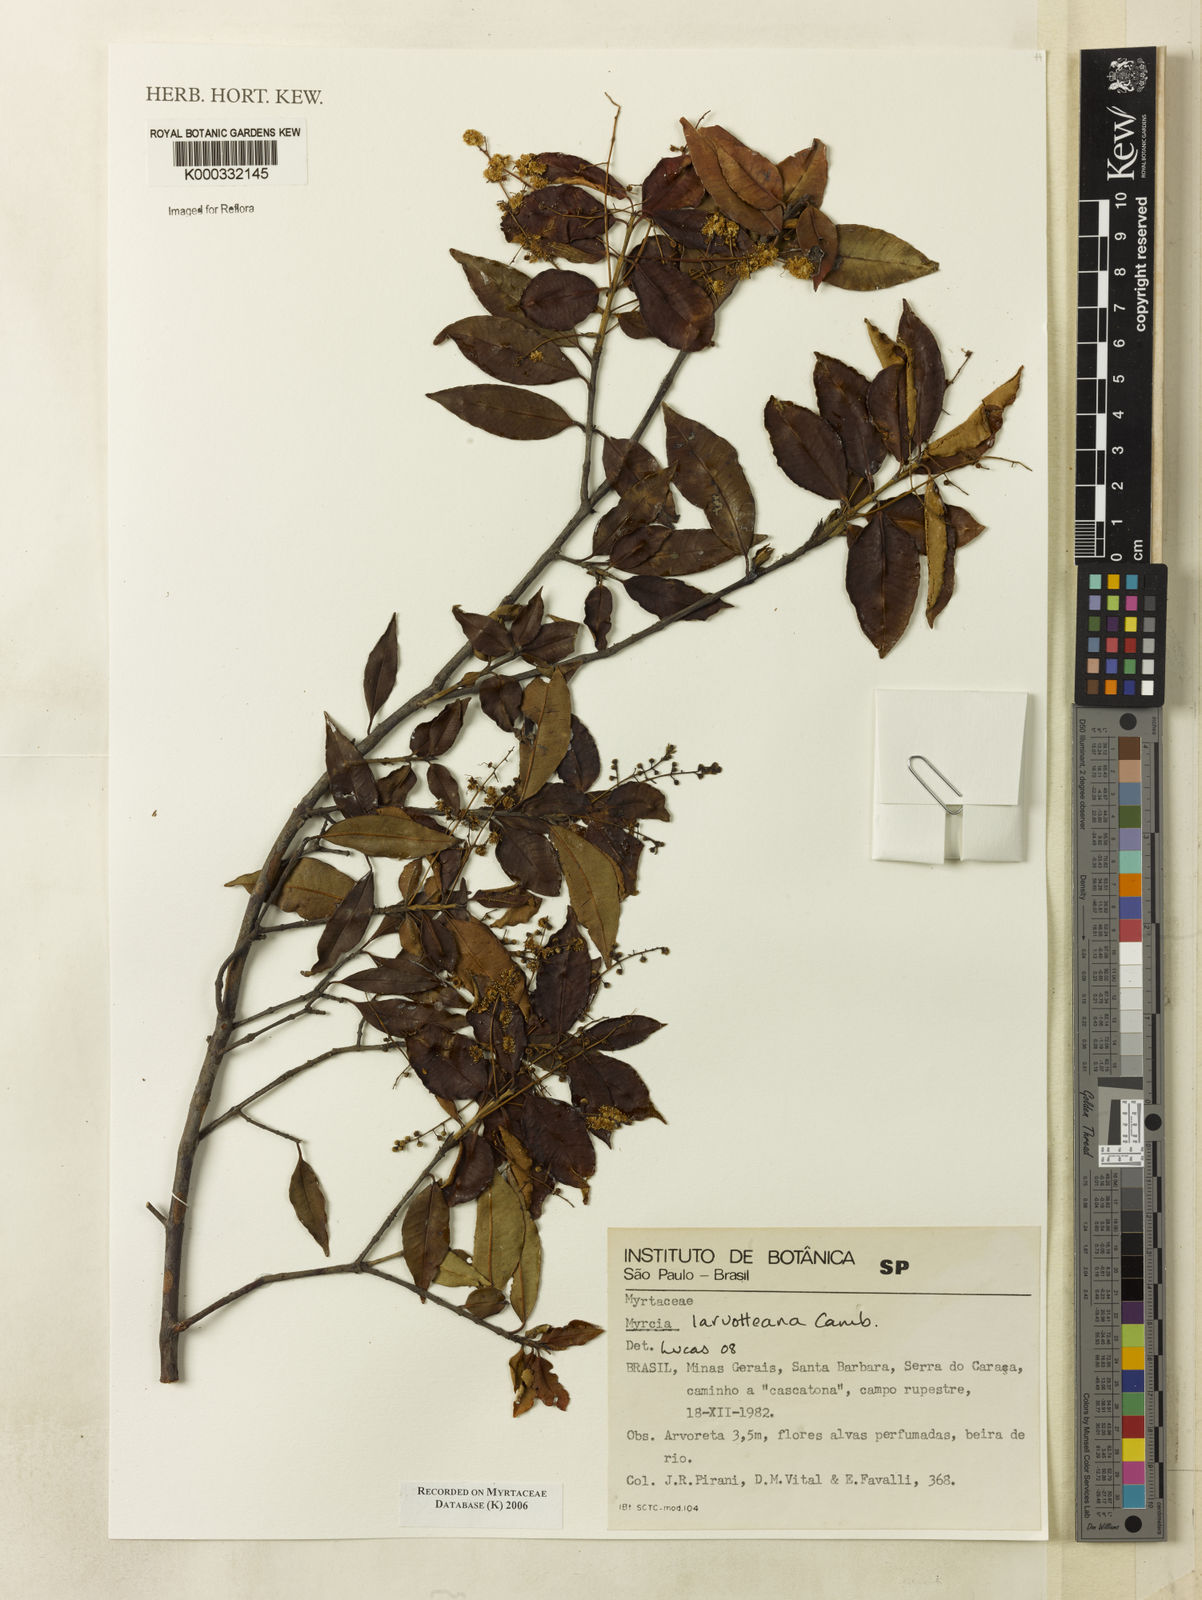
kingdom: Plantae
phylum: Tracheophyta
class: Magnoliopsida
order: Myrtales
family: Myrtaceae
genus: Myrcia
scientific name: Myrcia
